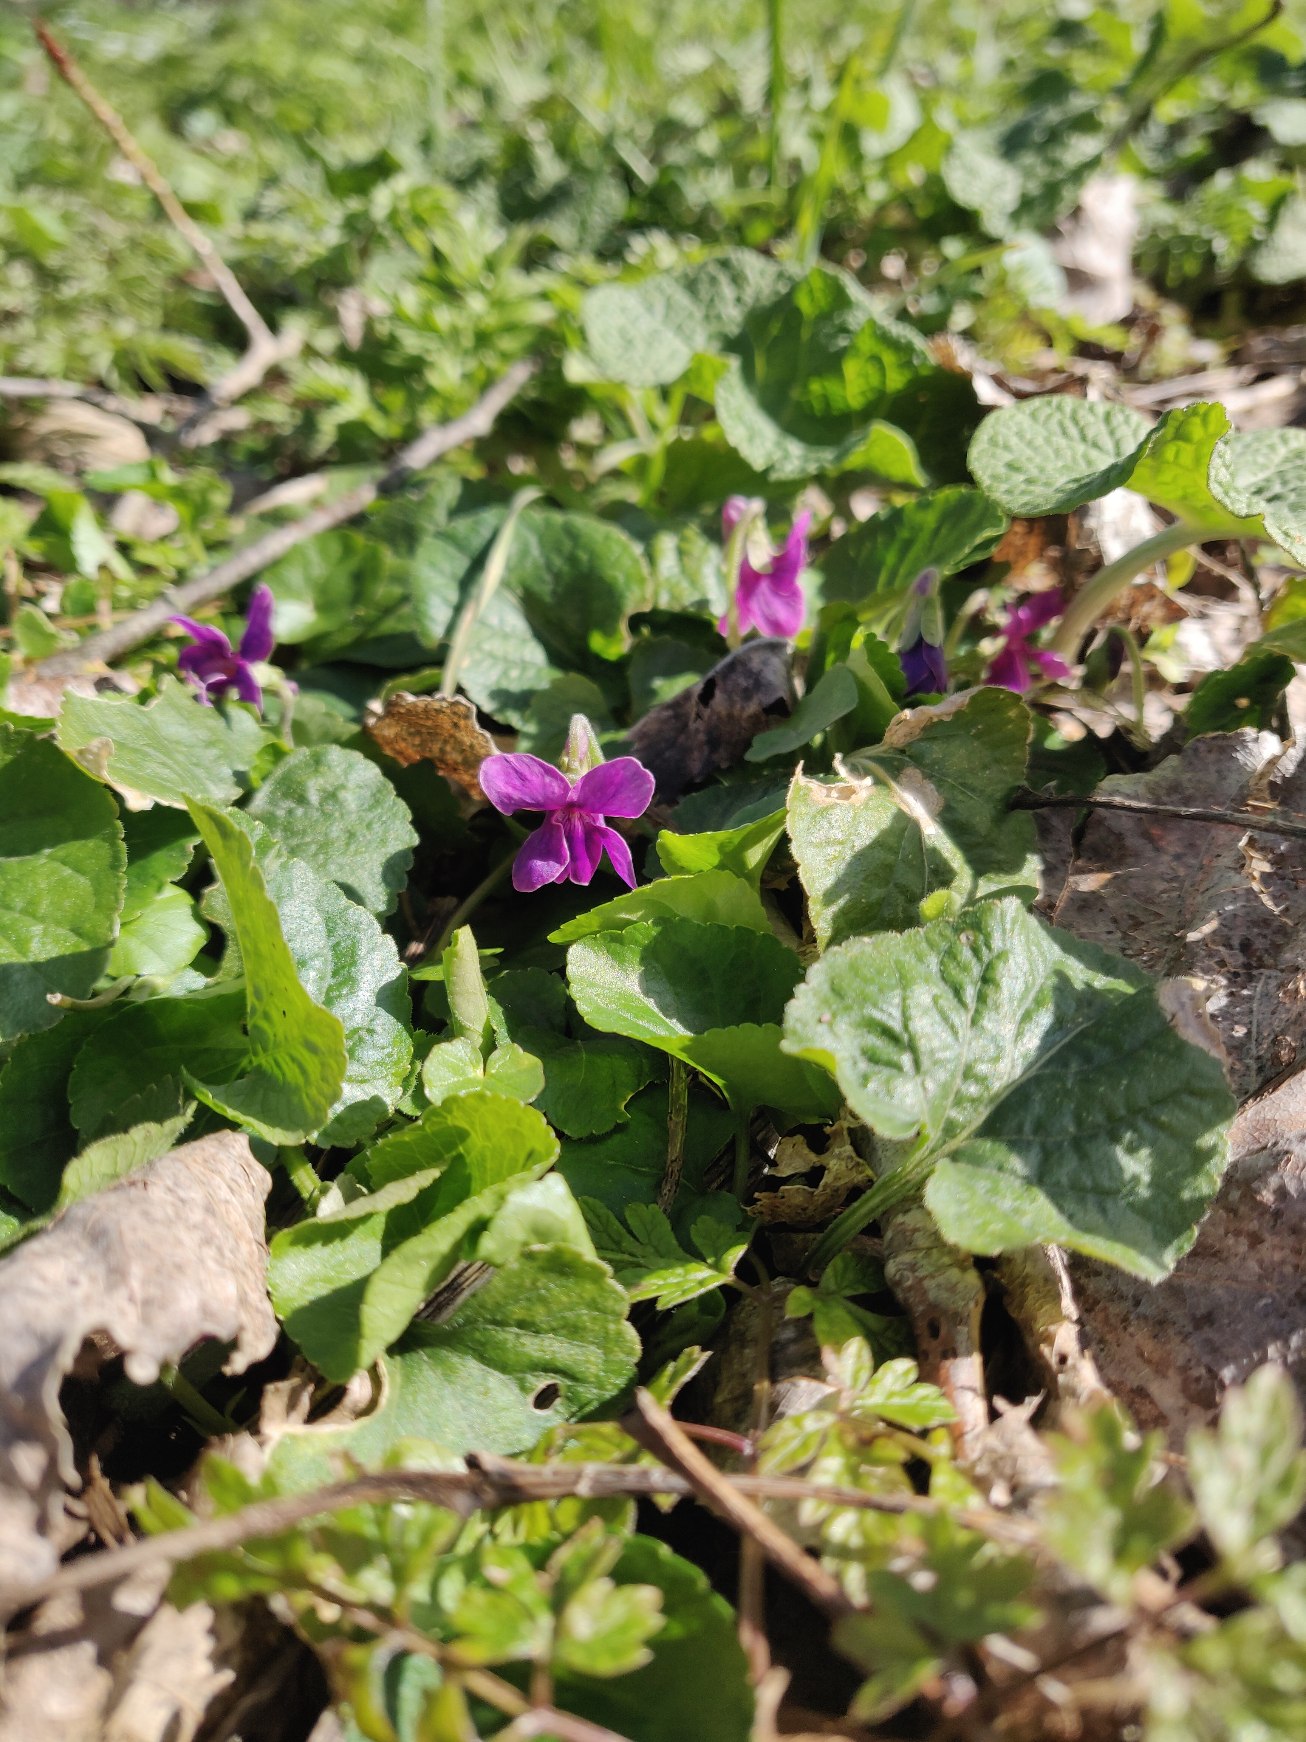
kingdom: Plantae
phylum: Tracheophyta
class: Magnoliopsida
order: Malpighiales
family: Violaceae
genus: Viola
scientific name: Viola odorata
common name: Marts-viol
